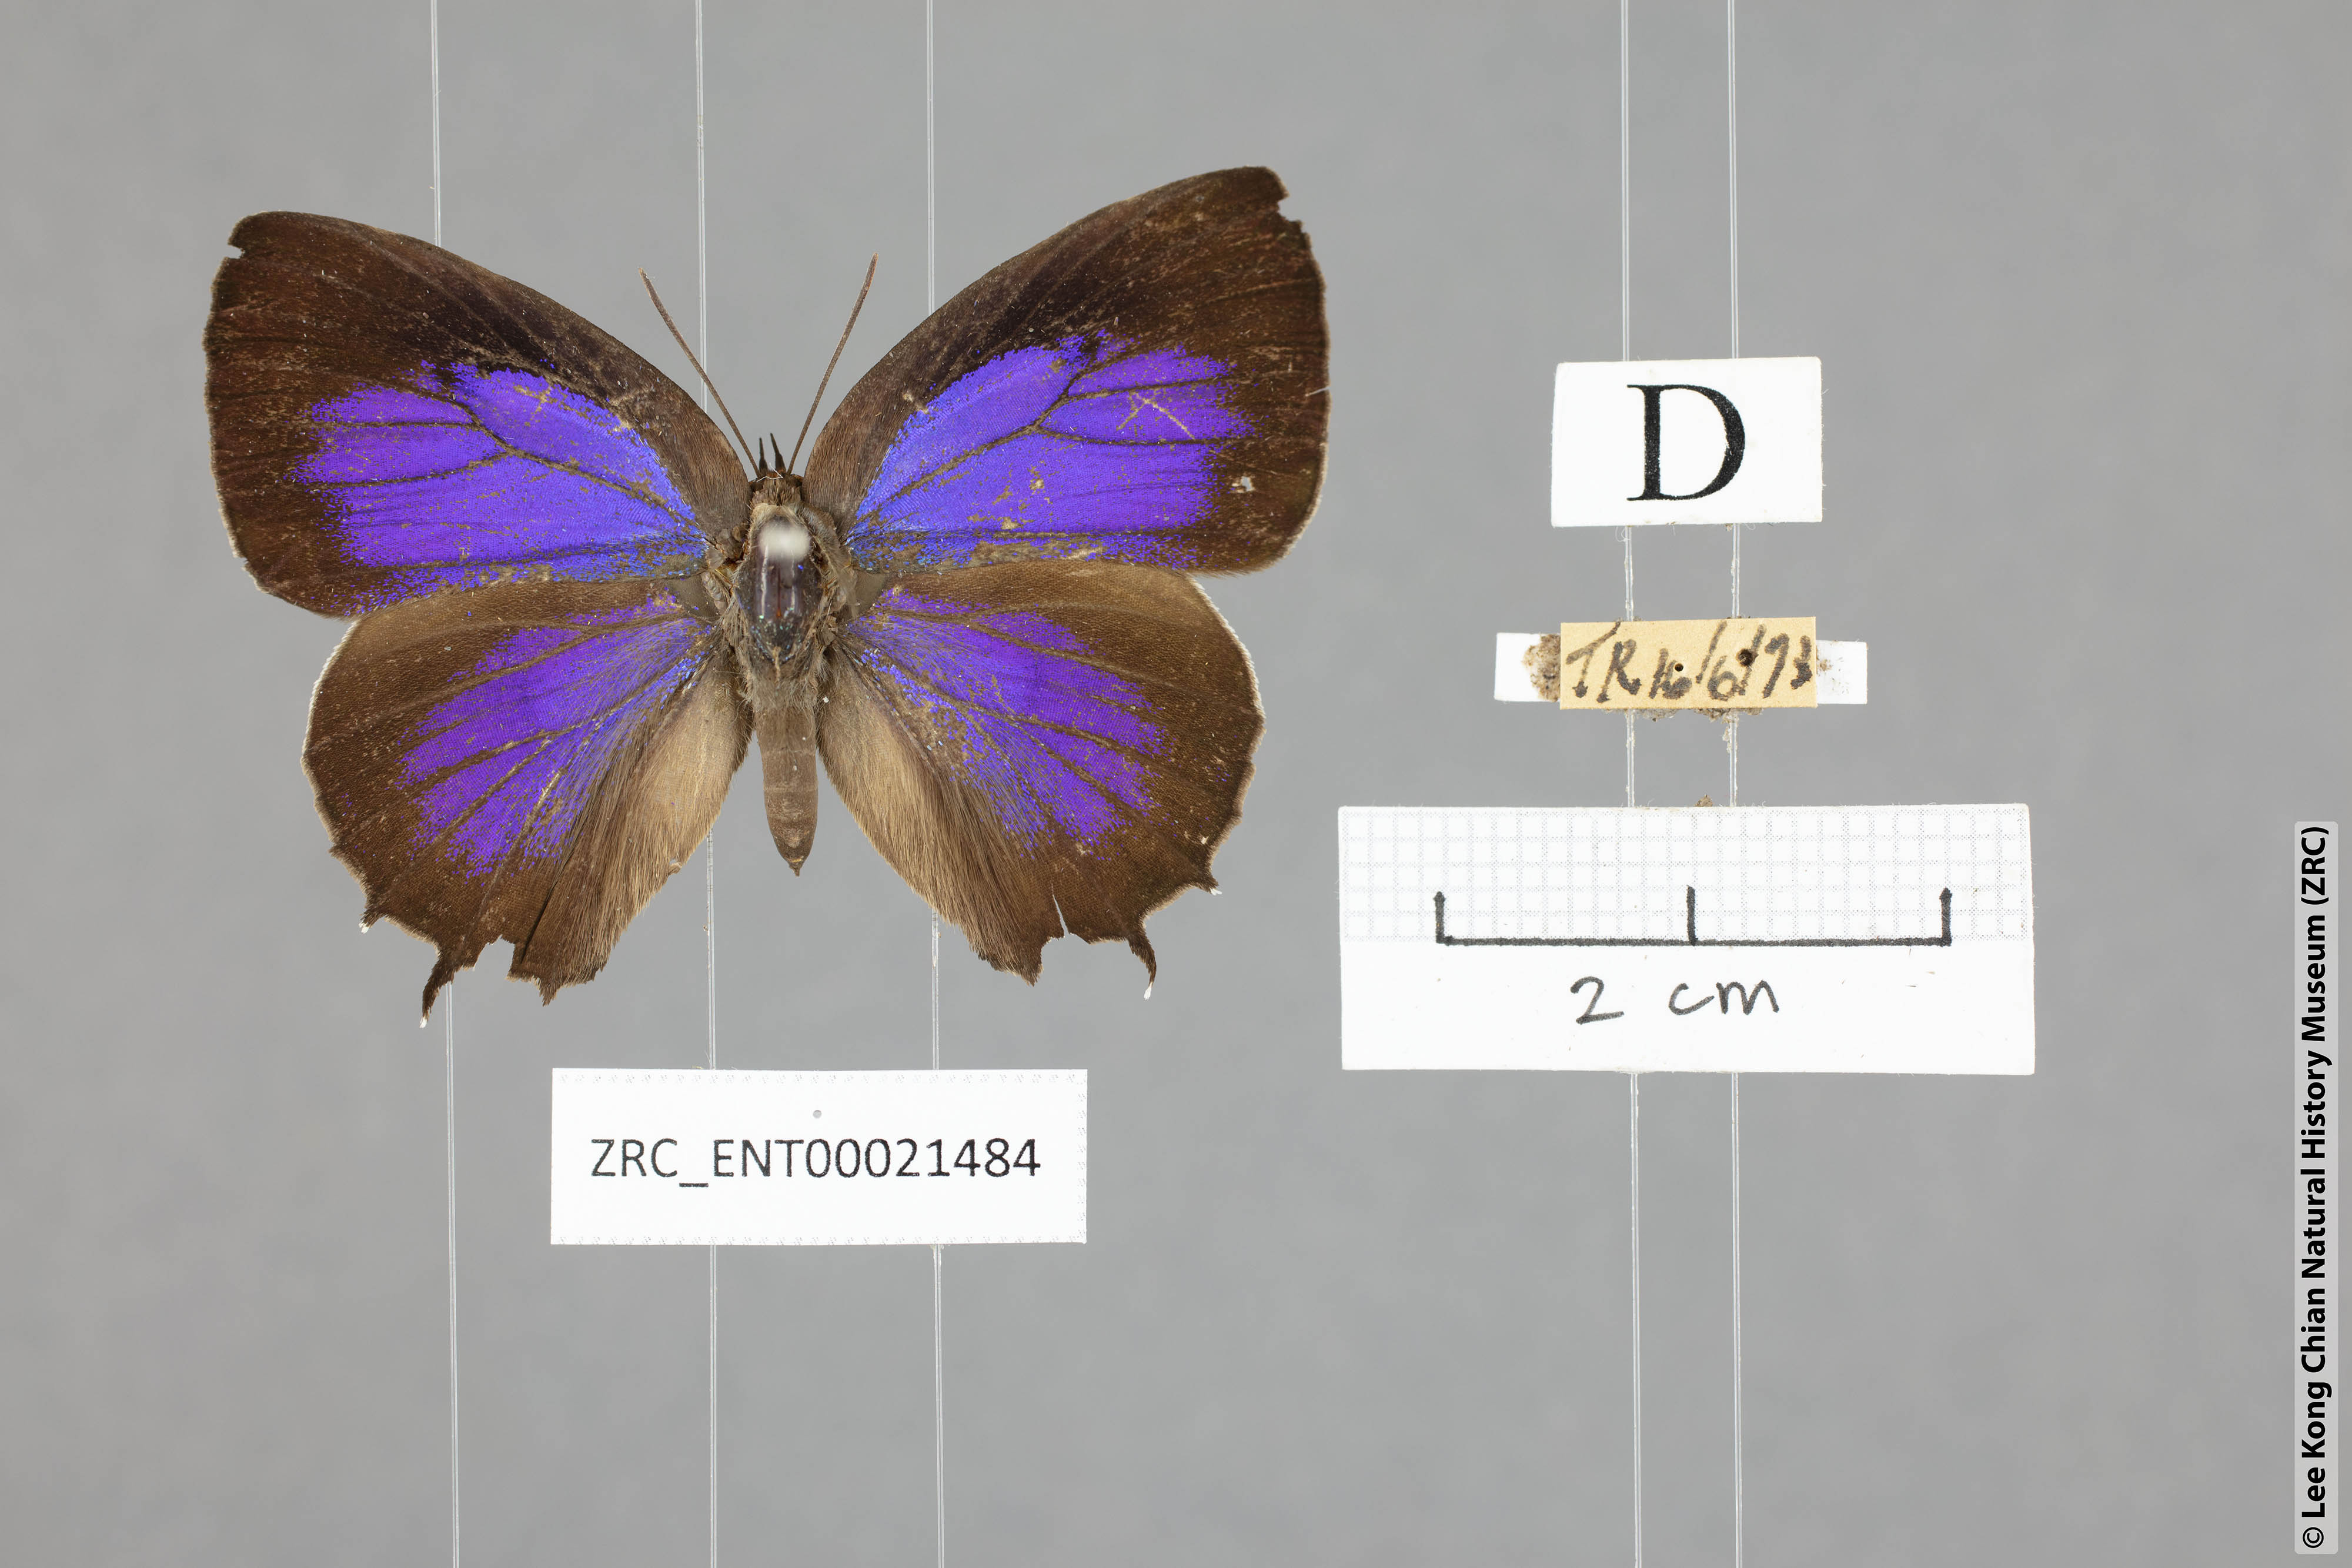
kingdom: Animalia
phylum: Arthropoda
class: Insecta
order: Lepidoptera
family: Lycaenidae
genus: Flos
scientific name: Flos
